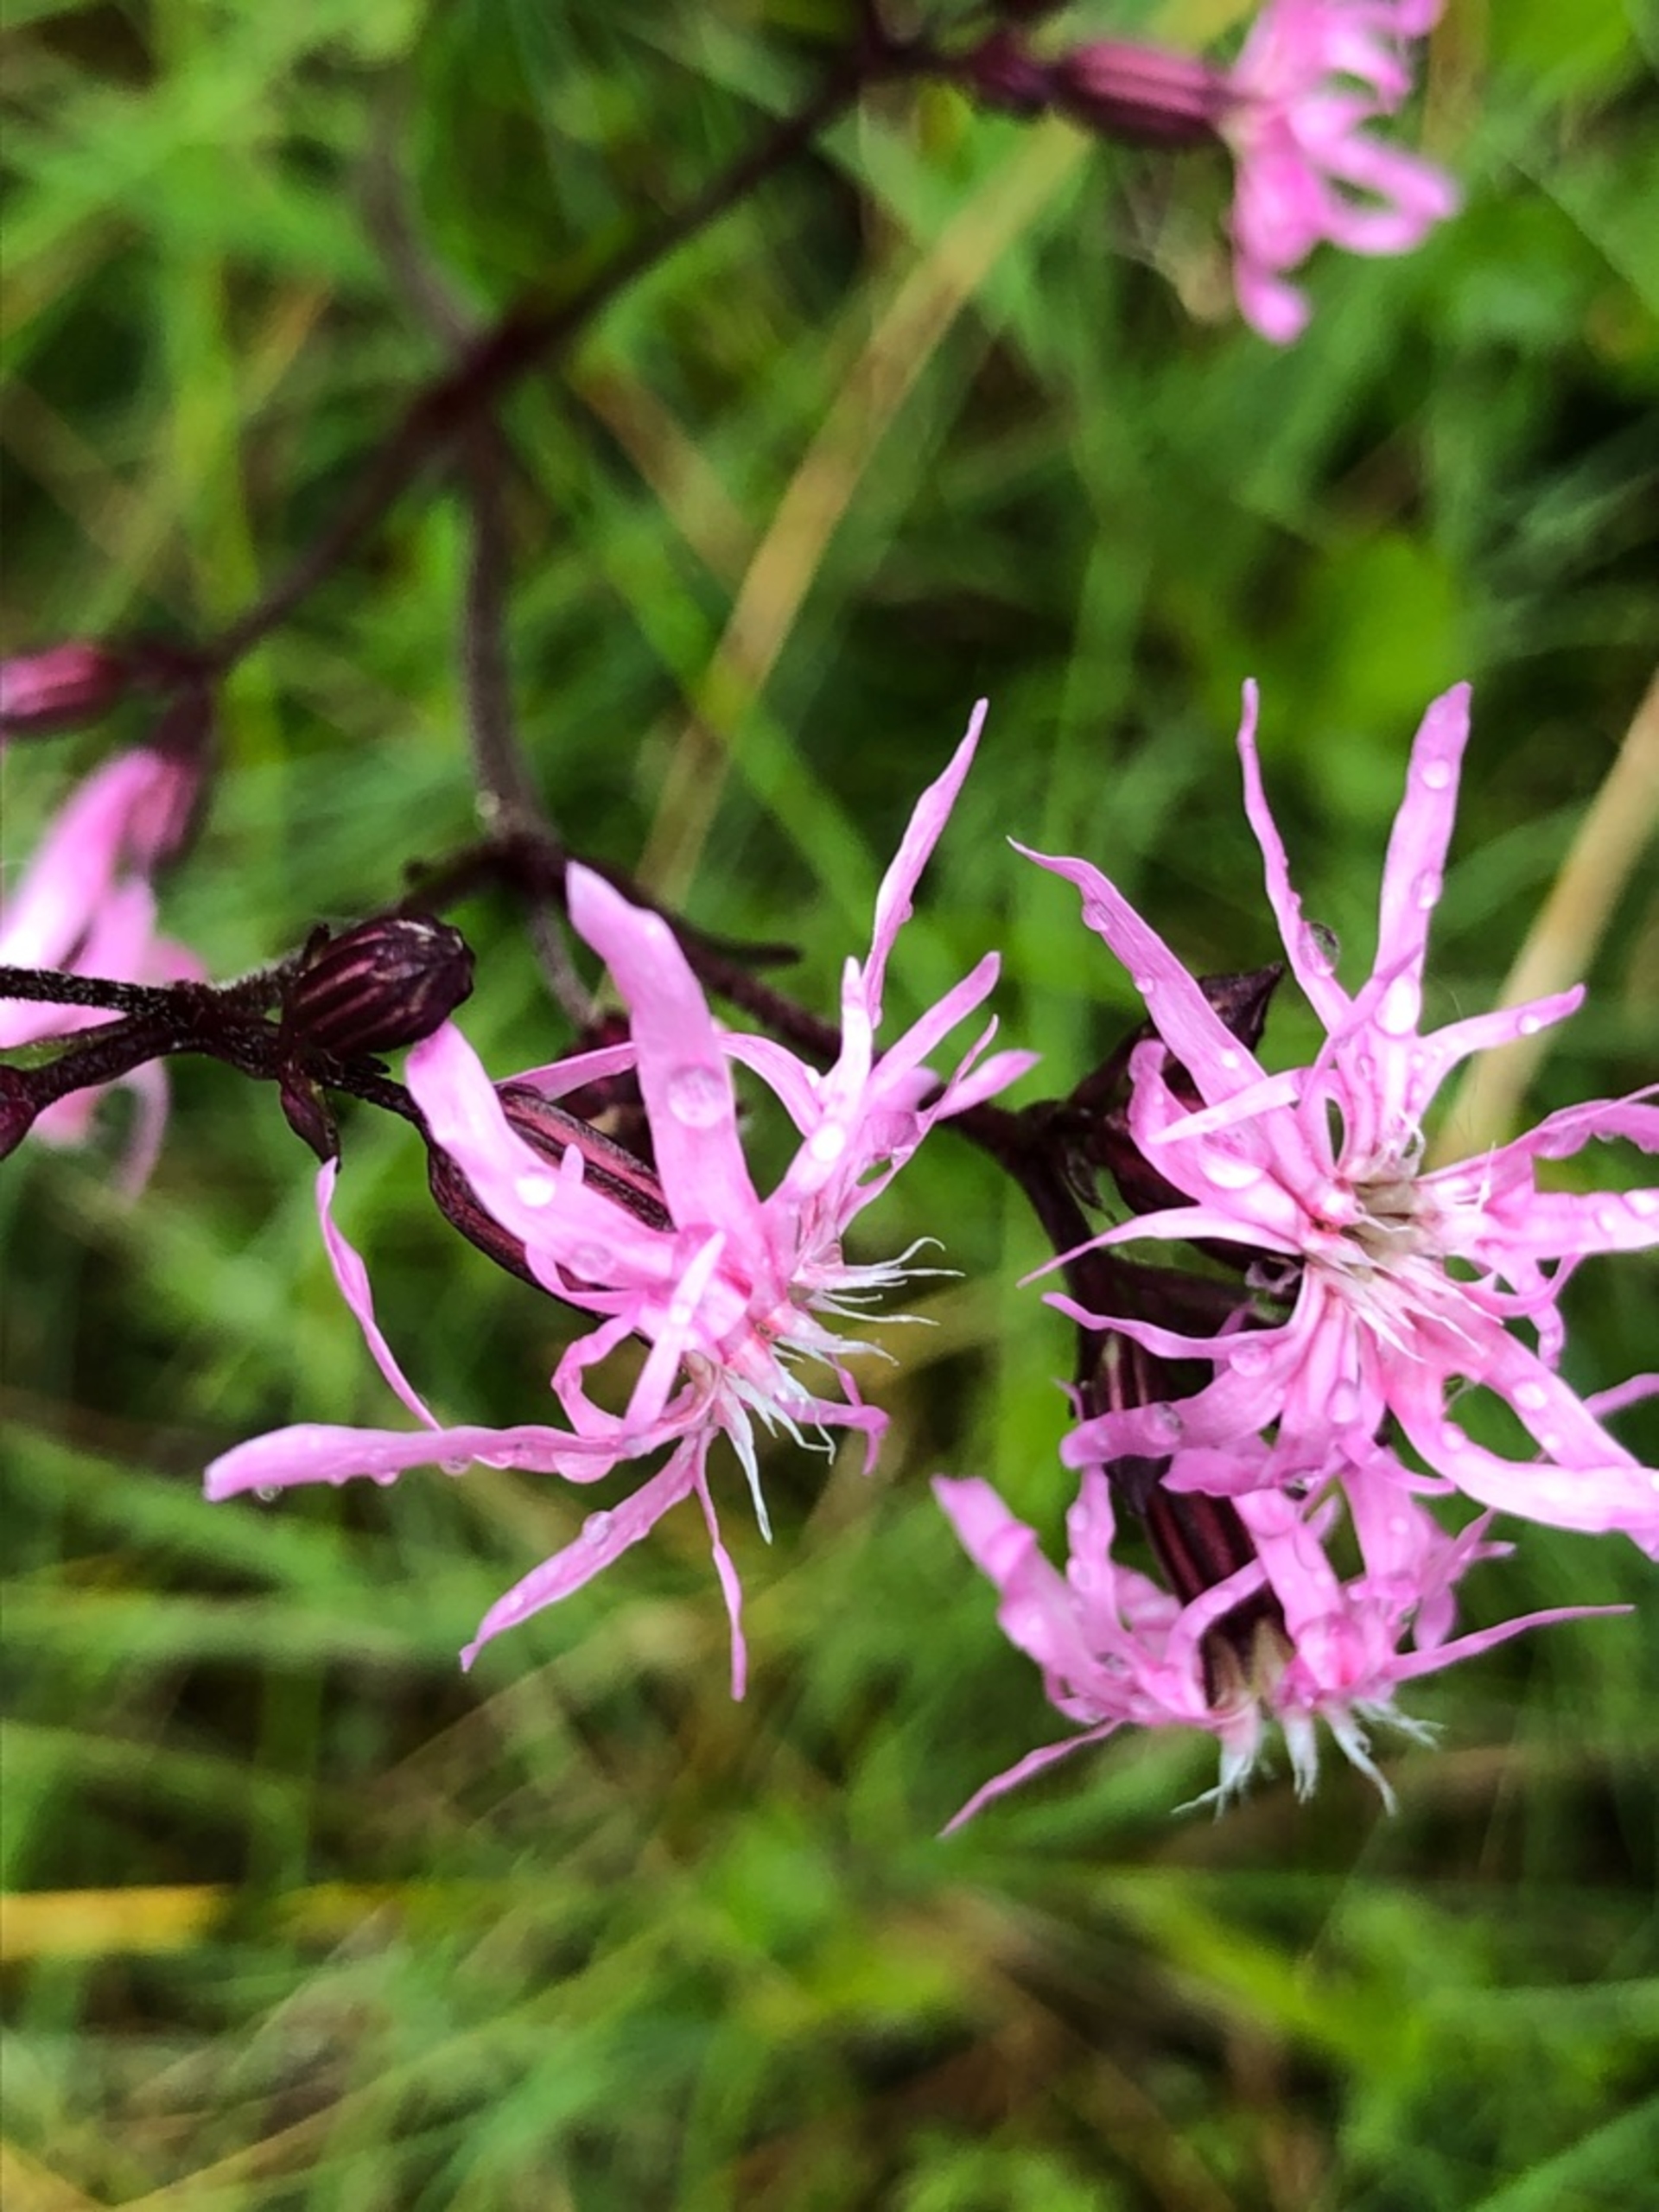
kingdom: Plantae
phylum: Tracheophyta
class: Magnoliopsida
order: Caryophyllales
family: Caryophyllaceae
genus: Silene
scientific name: Silene flos-cuculi
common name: Trævlekrone
